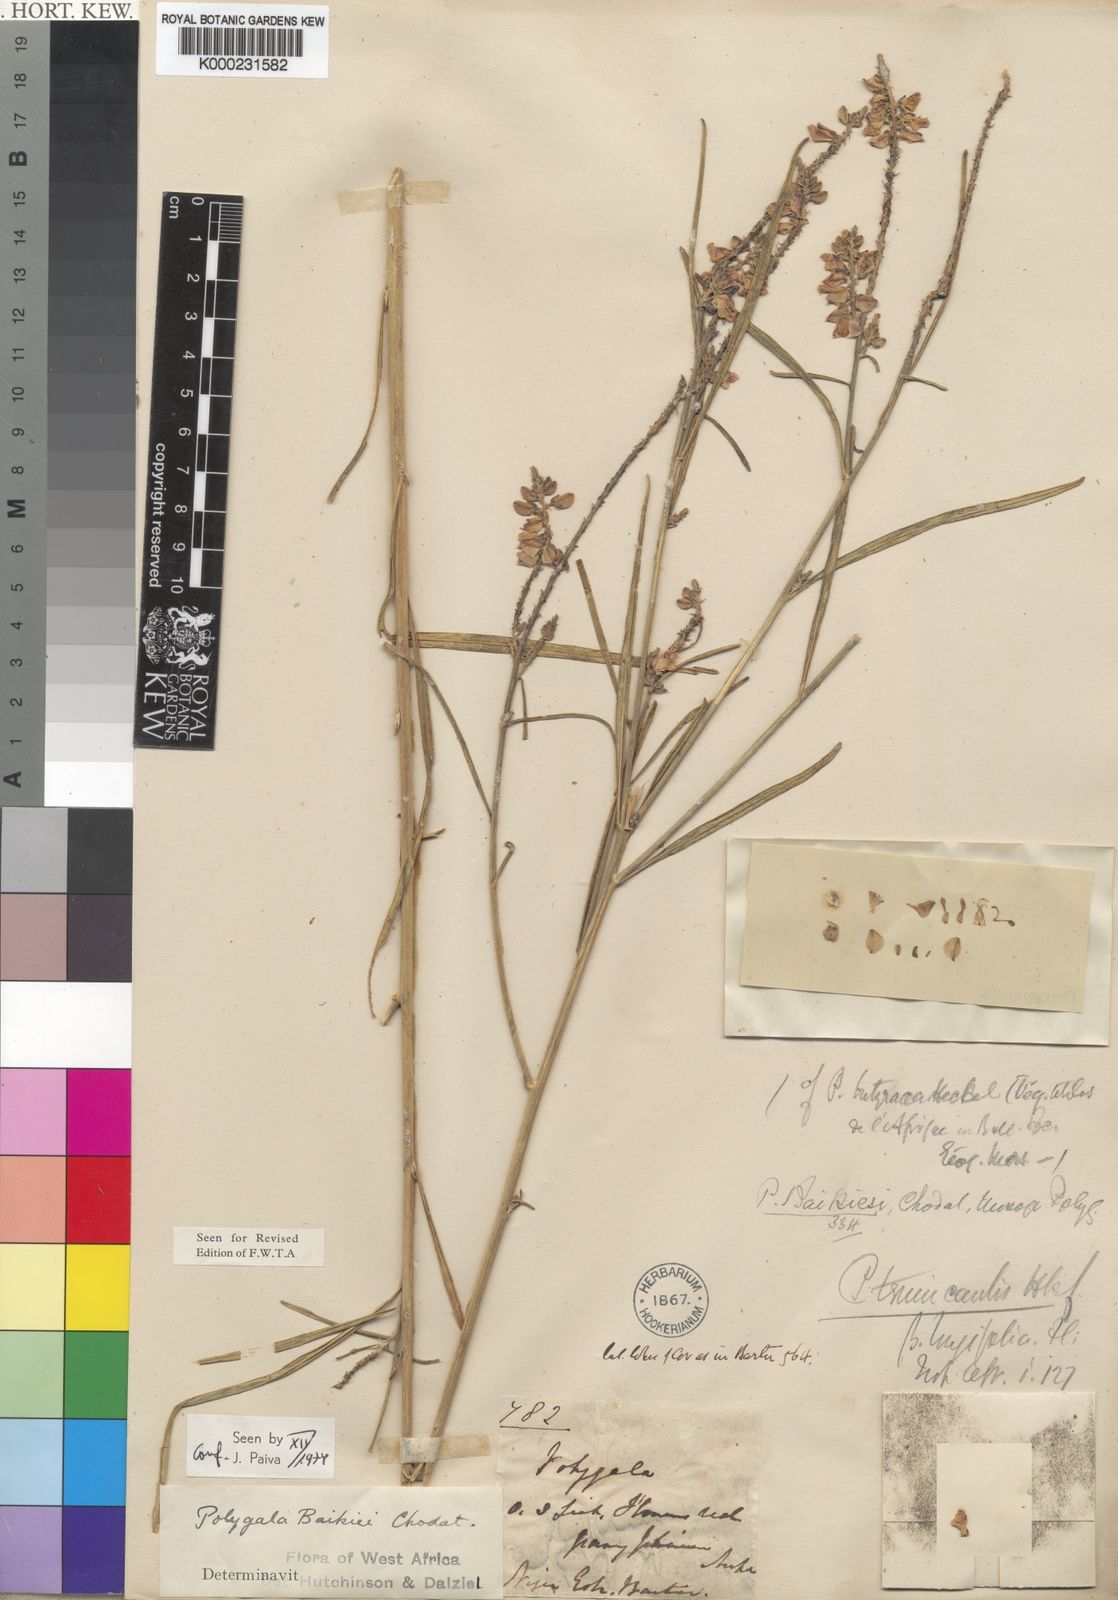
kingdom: Plantae
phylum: Tracheophyta
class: Magnoliopsida
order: Fabales
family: Polygalaceae
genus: Polygala
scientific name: Polygala baikiei
